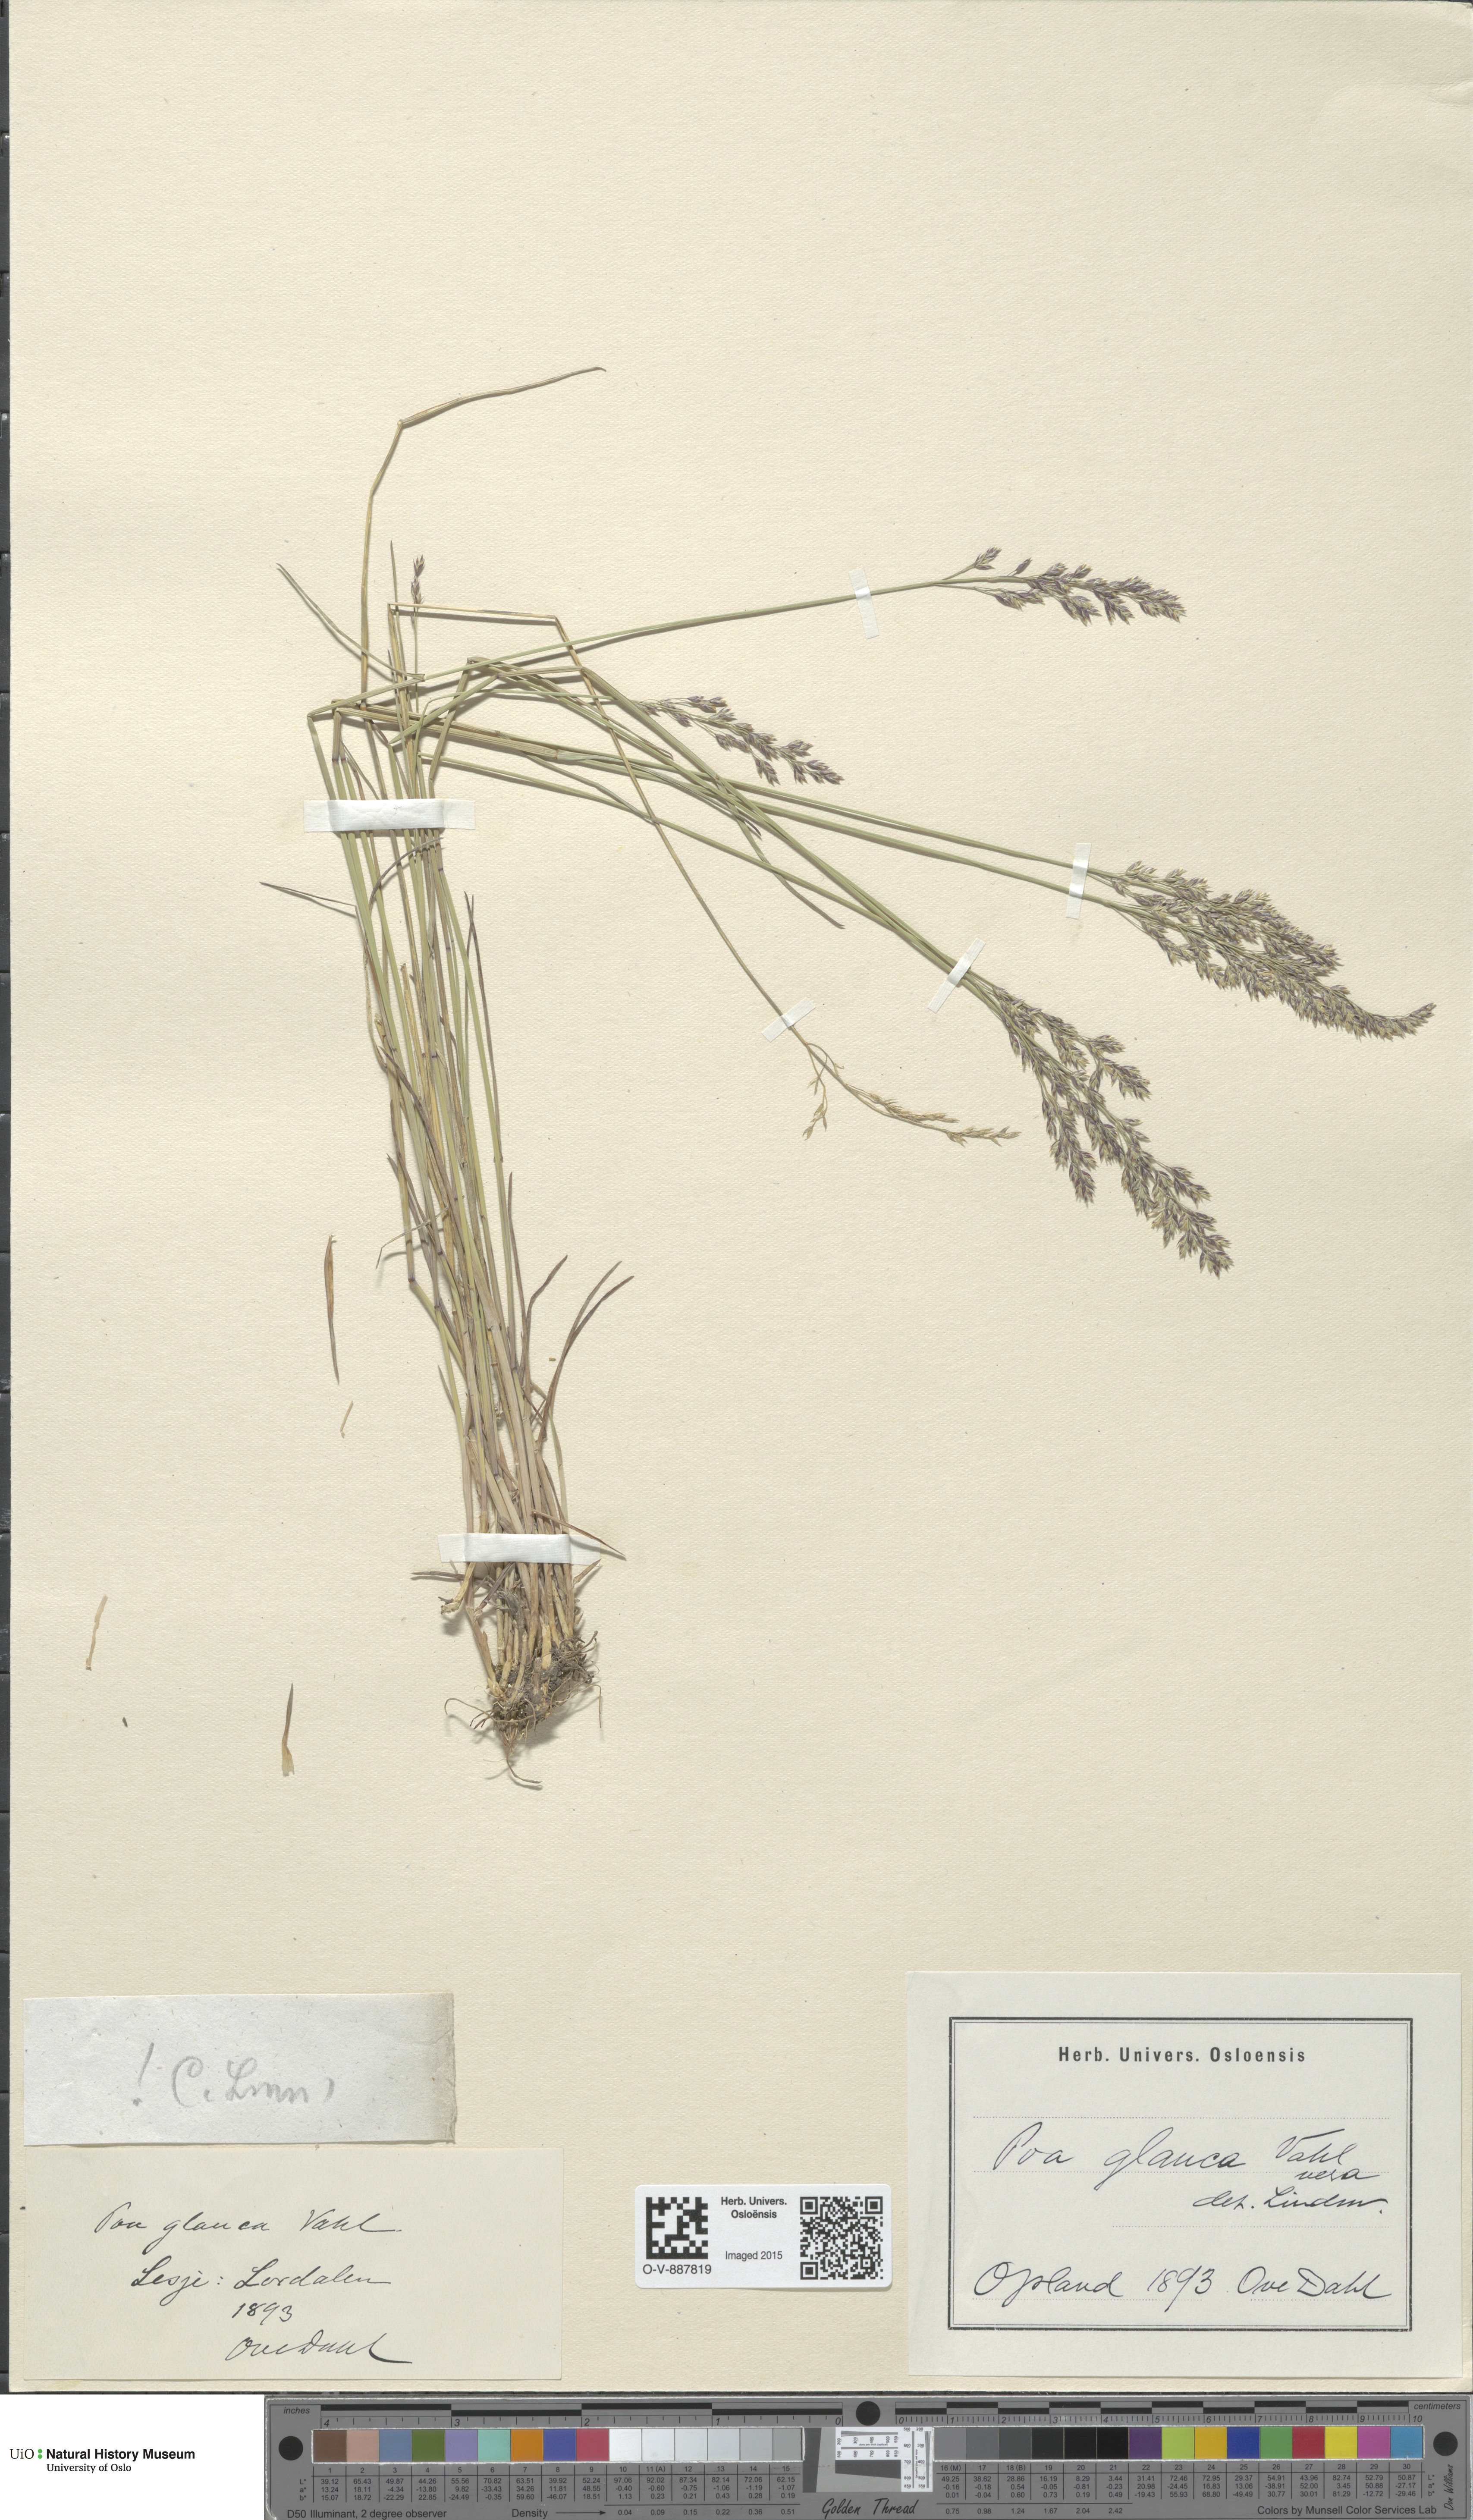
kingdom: Plantae
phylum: Tracheophyta
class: Liliopsida
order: Poales
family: Poaceae
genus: Poa
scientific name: Poa glauca
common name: Glaucous bluegrass
